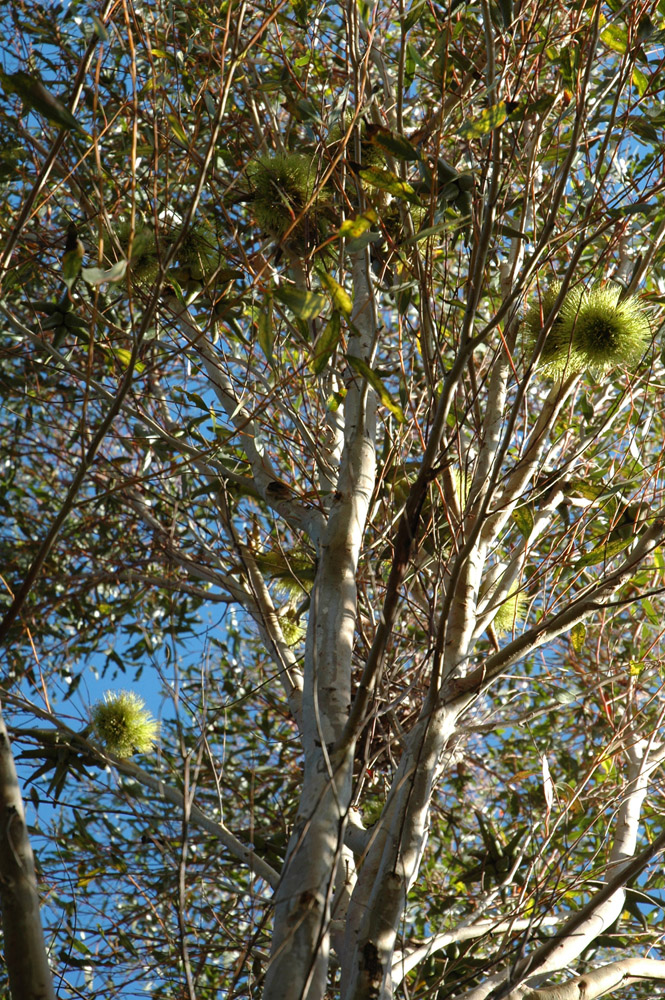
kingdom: Plantae
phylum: Tracheophyta
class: Magnoliopsida
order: Myrtales
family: Myrtaceae
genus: Eucalyptus
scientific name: Eucalyptus newbeyi
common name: Beaufort inlet mallet
